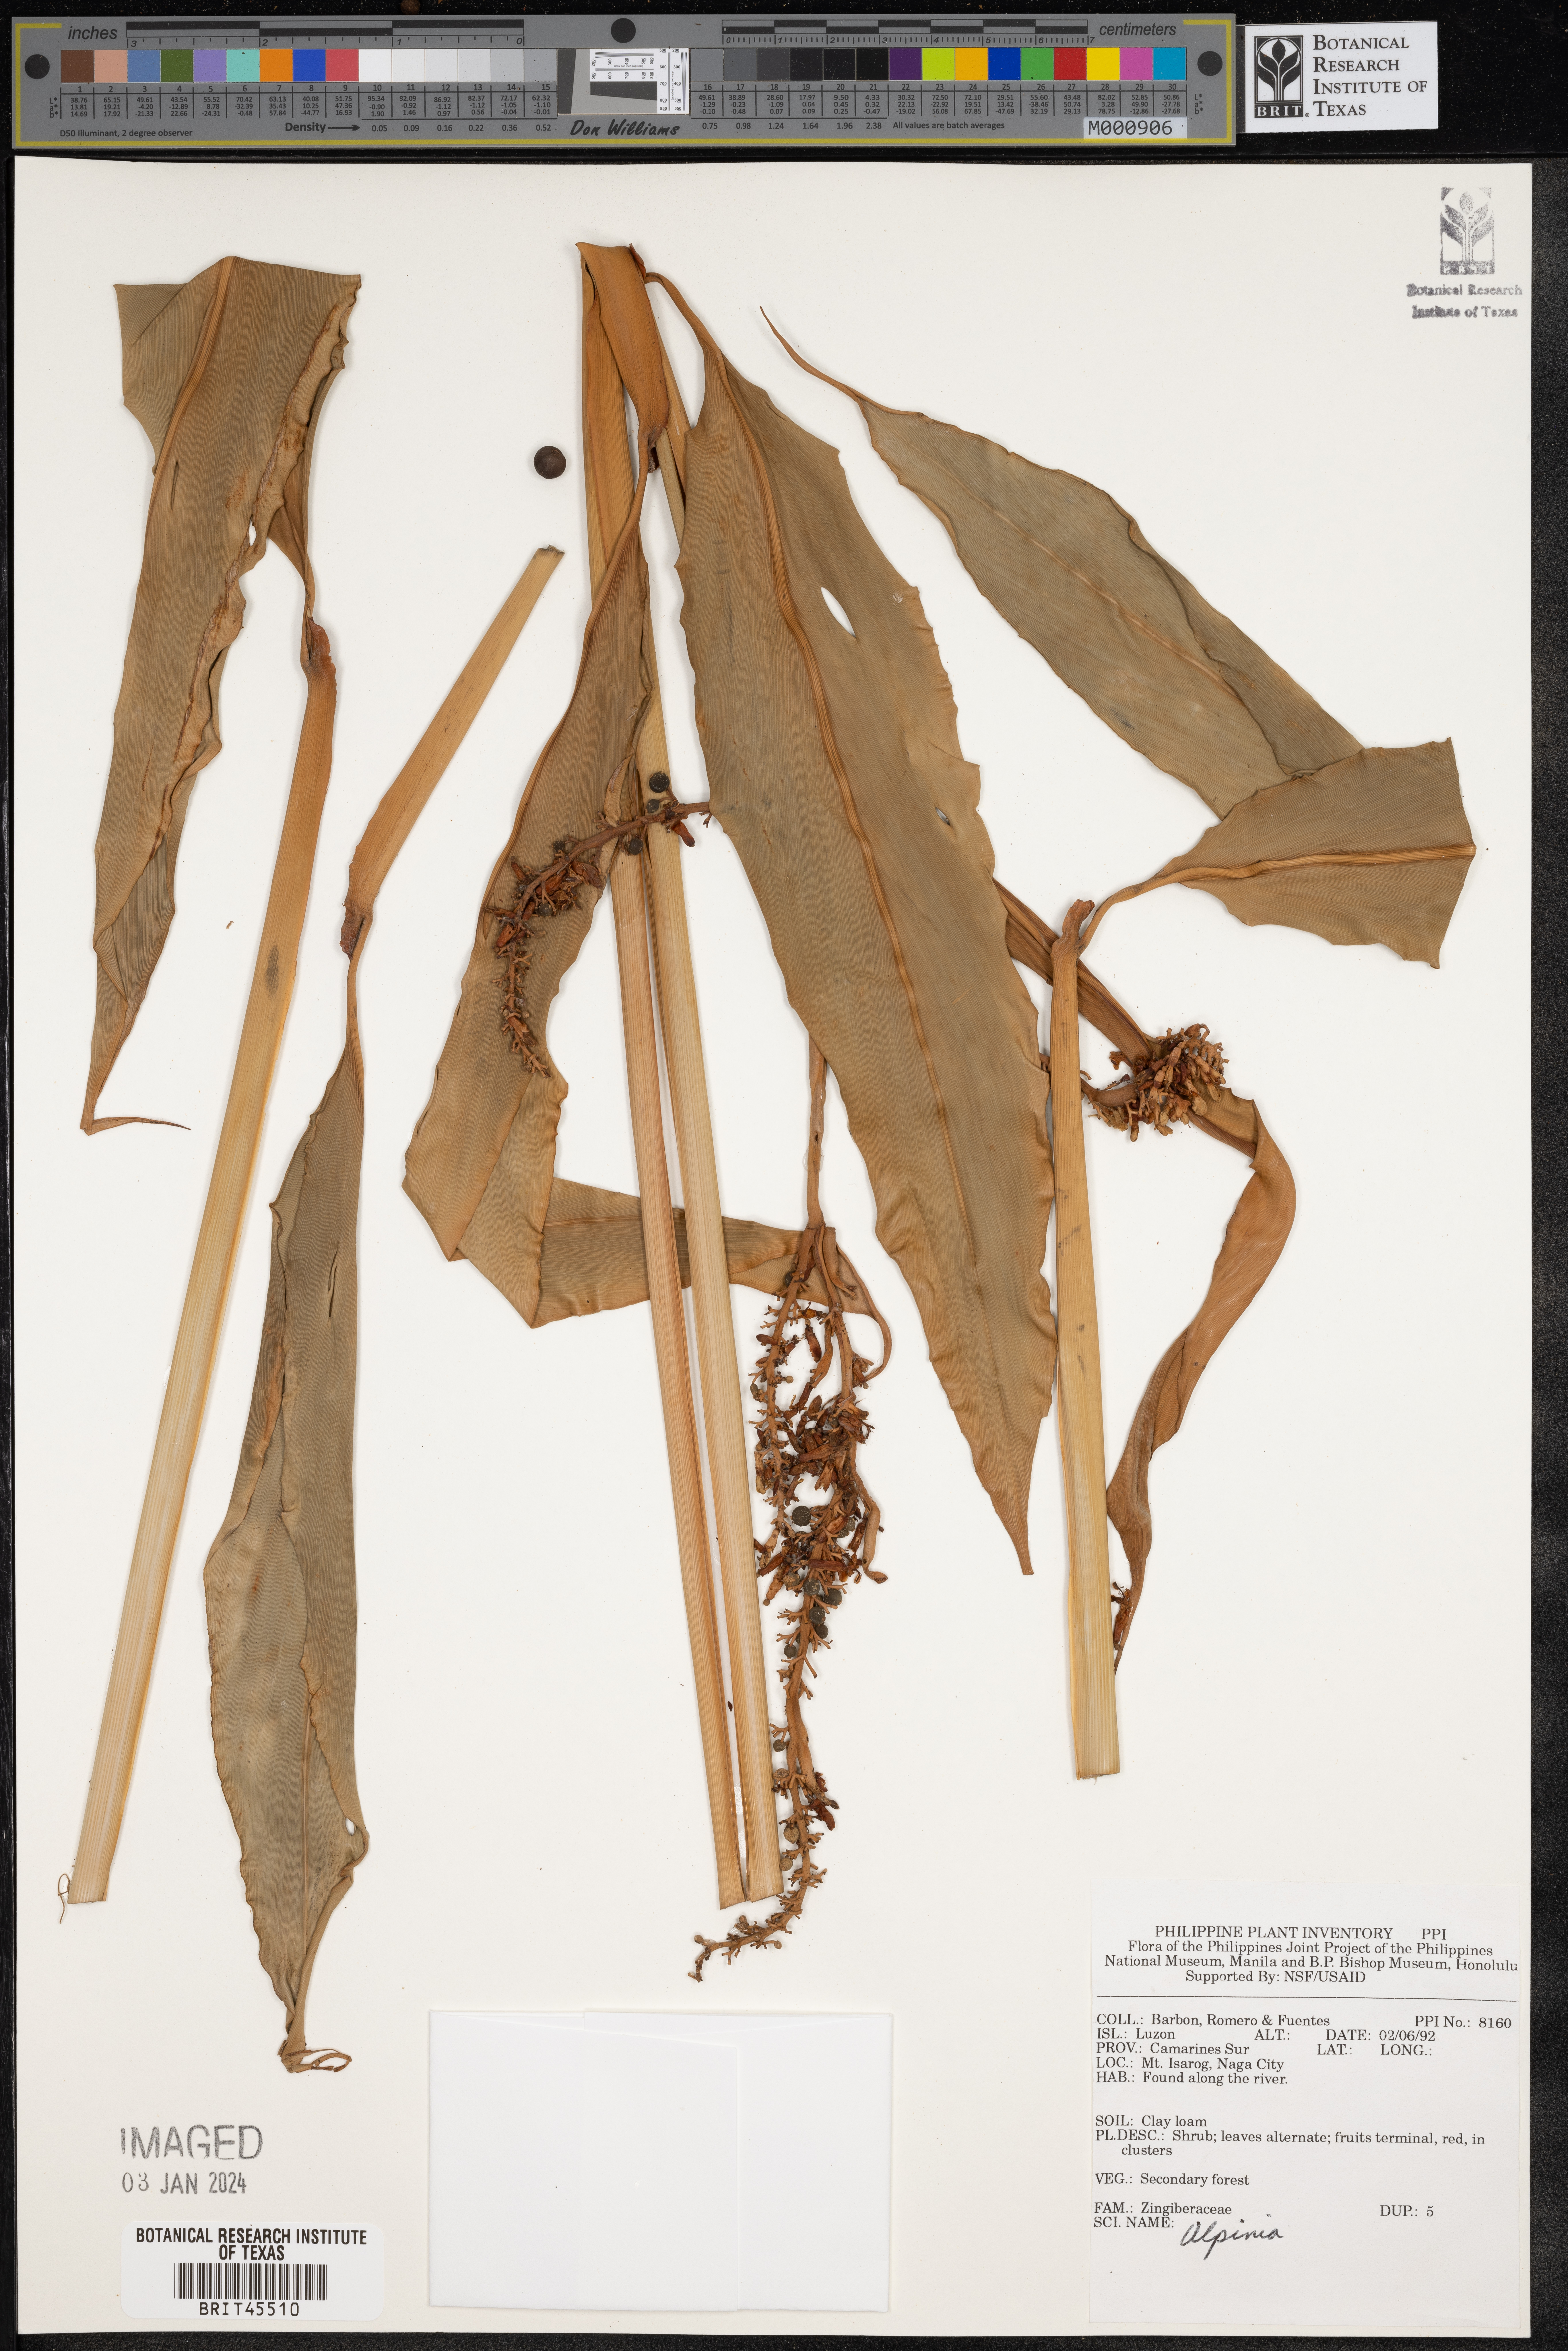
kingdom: Plantae
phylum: Tracheophyta
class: Liliopsida
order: Zingiberales
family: Zingiberaceae
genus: Alpinia
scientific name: Alpinia
